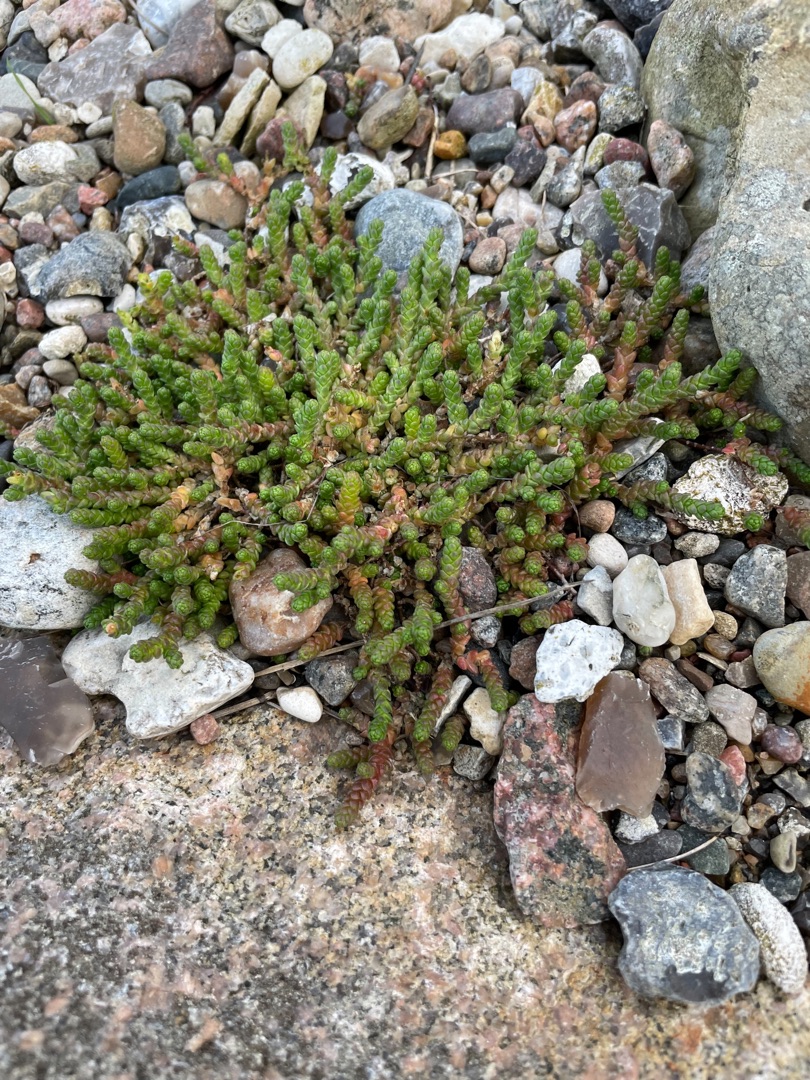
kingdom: Plantae
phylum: Tracheophyta
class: Magnoliopsida
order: Saxifragales
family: Crassulaceae
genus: Sedum
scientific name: Sedum acre
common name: Bidende stenurt
